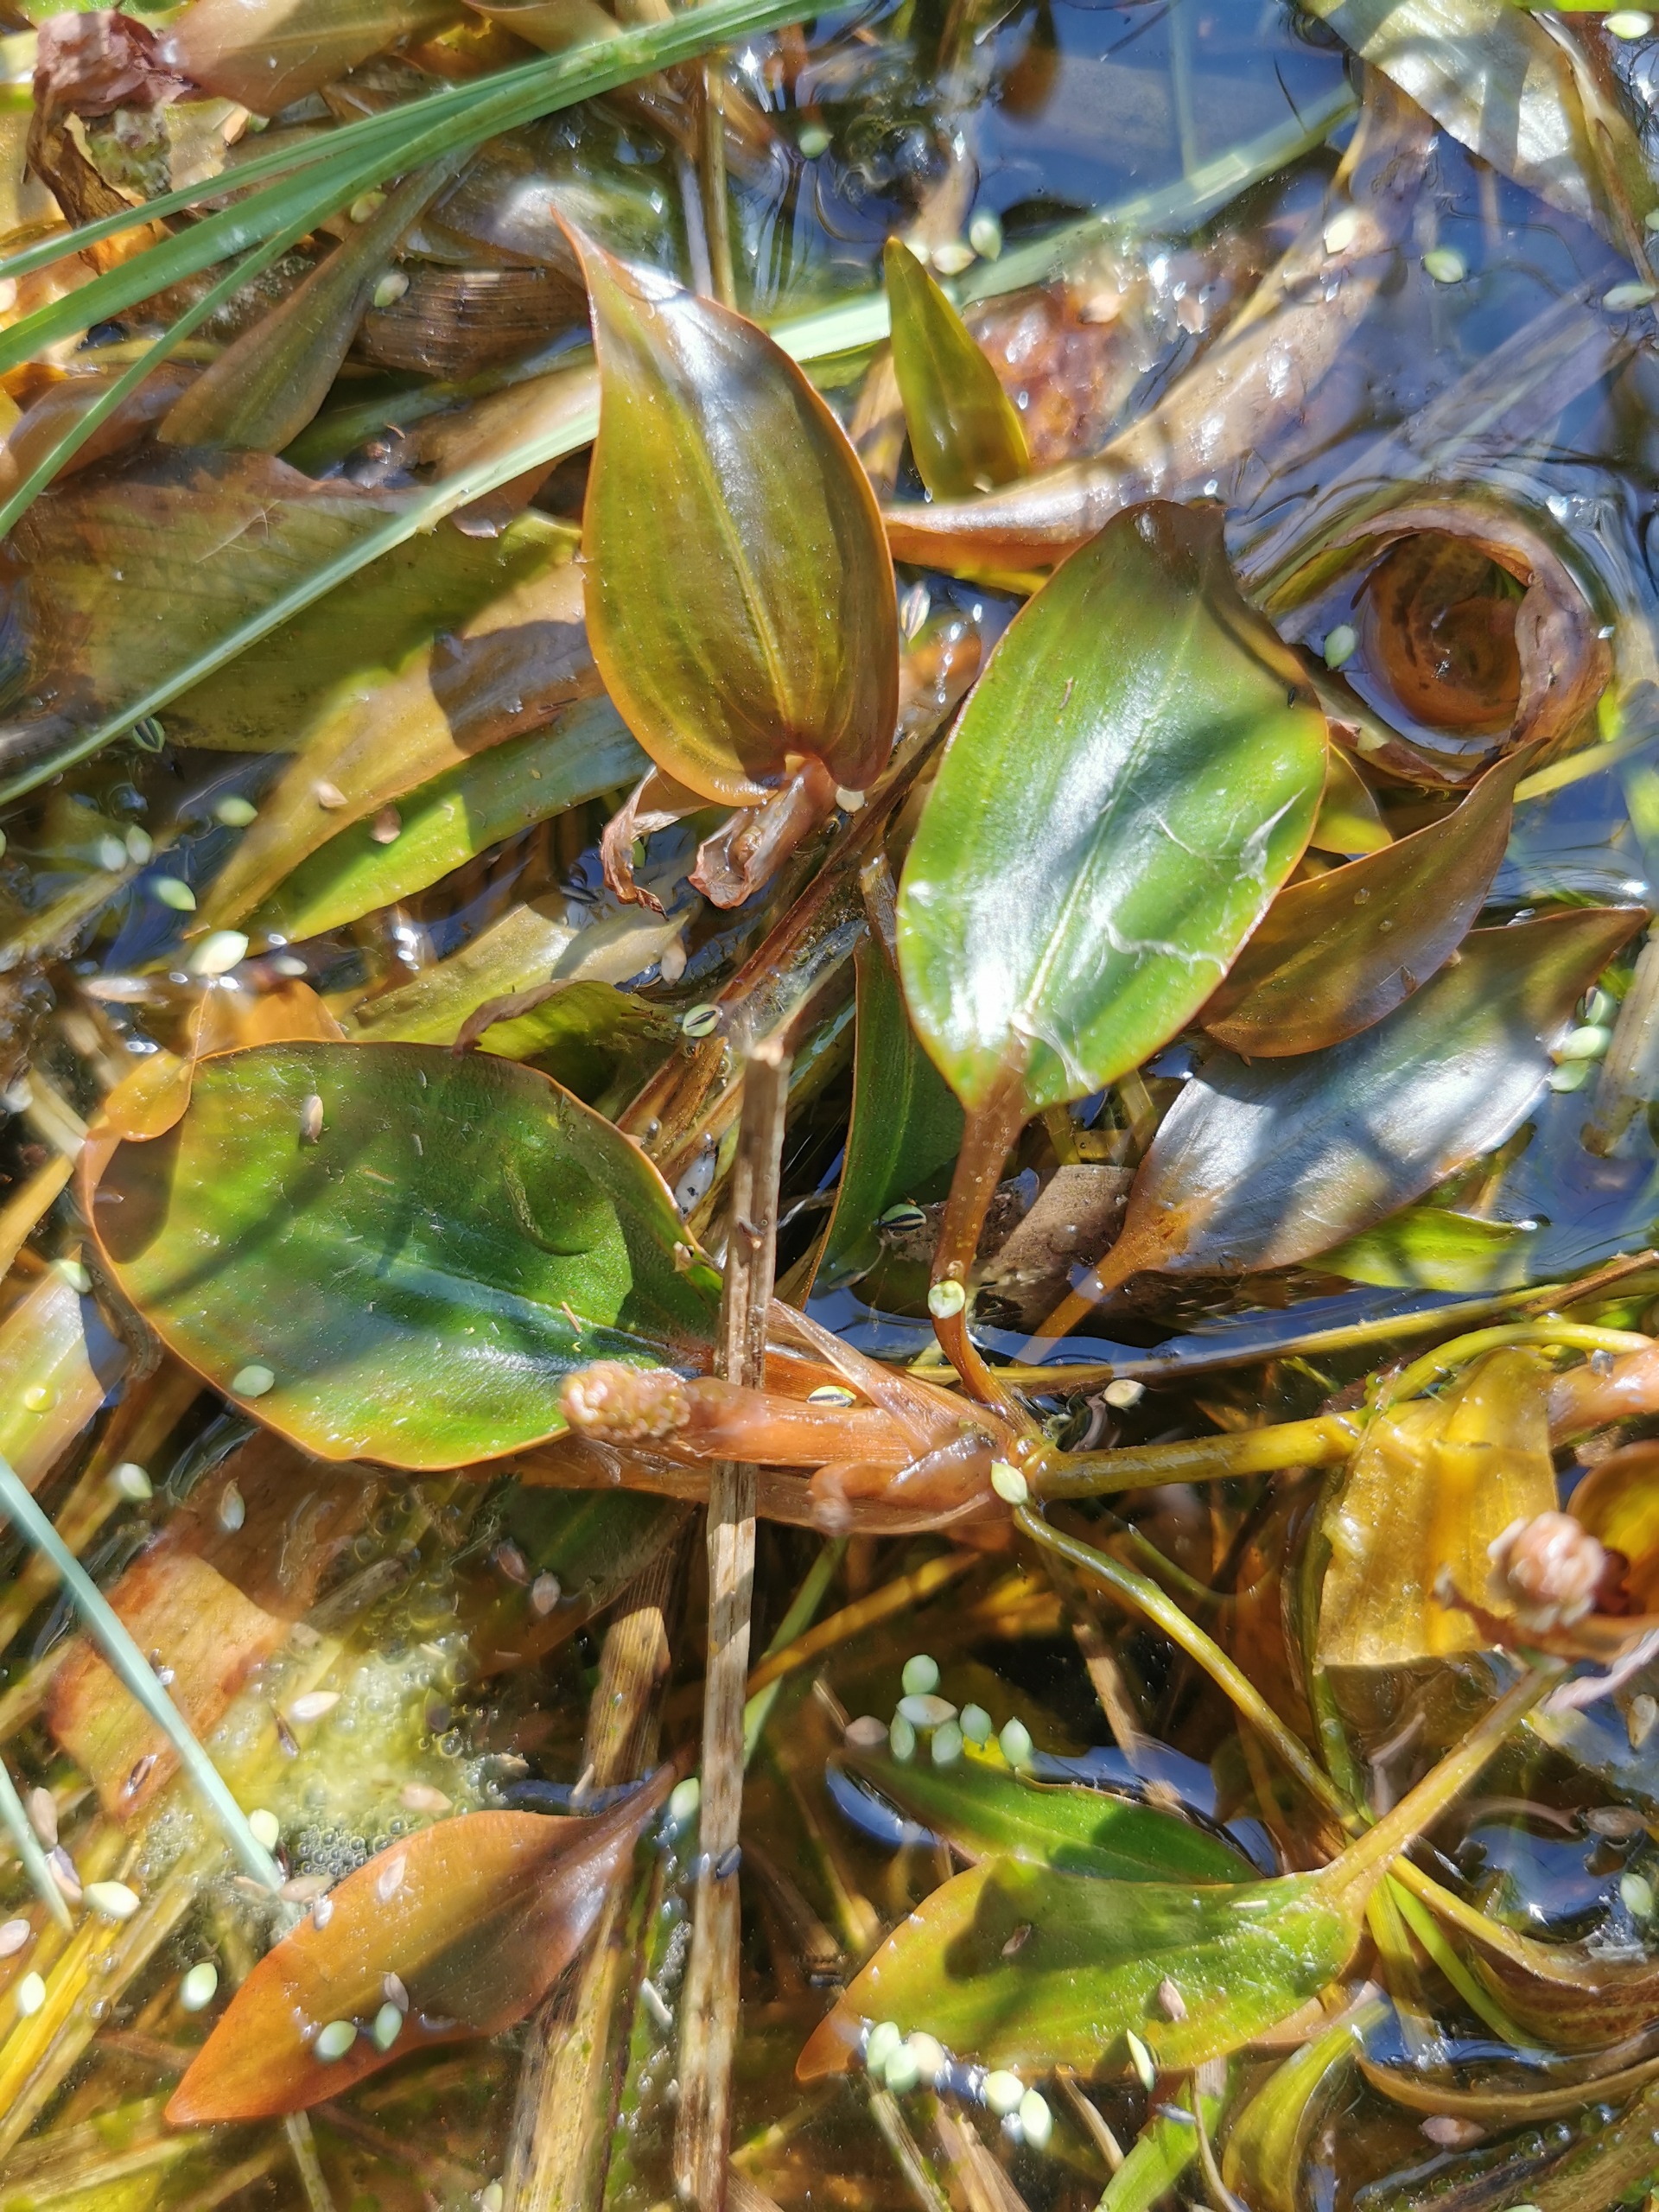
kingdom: Plantae
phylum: Tracheophyta
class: Liliopsida
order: Alismatales
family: Potamogetonaceae
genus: Potamogeton
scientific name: Potamogeton polygonifolius
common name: Aflangbladet vandaks
